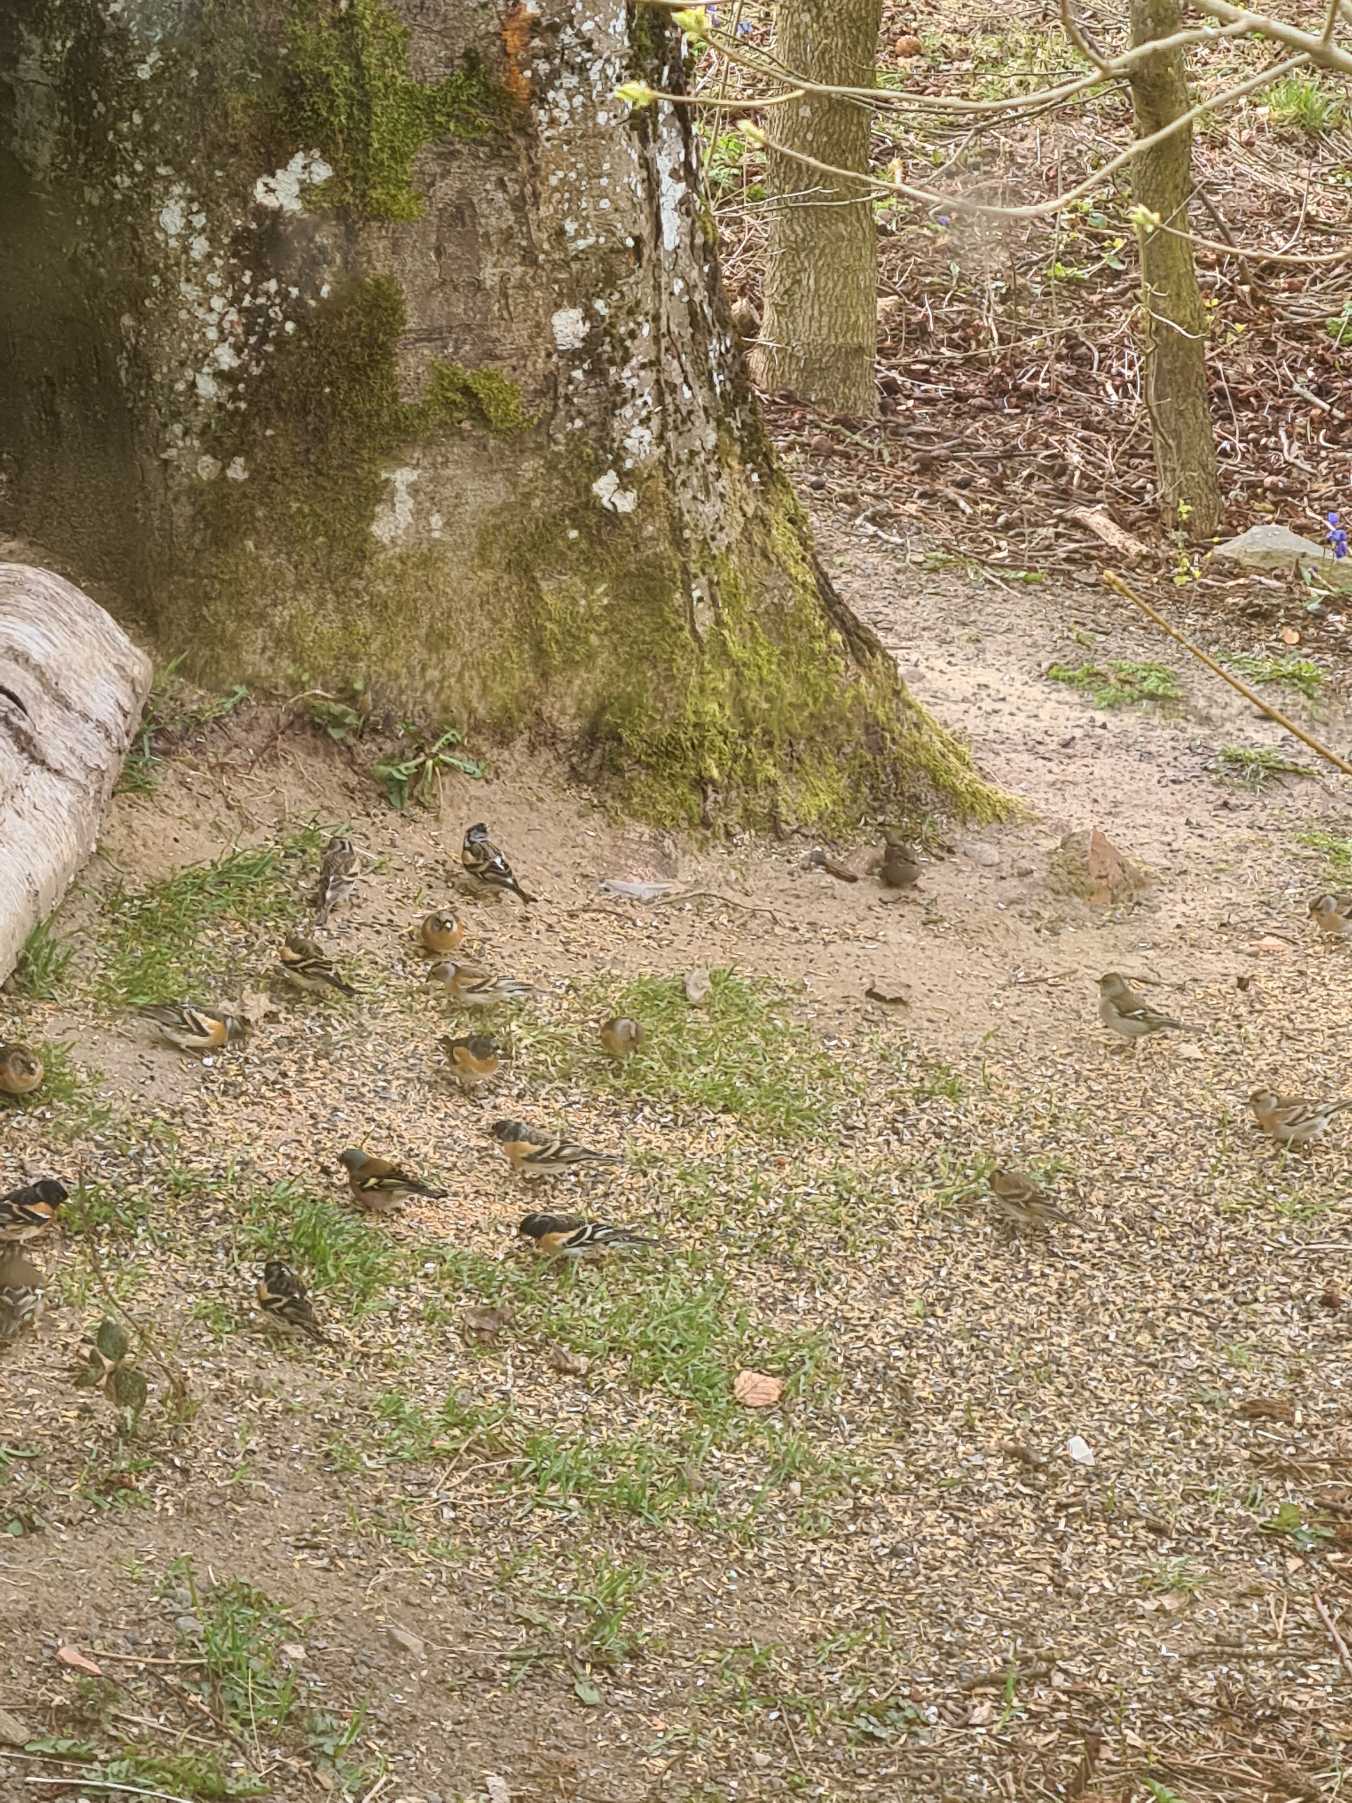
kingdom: Animalia
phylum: Chordata
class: Aves
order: Passeriformes
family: Fringillidae
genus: Fringilla
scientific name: Fringilla montifringilla
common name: Kvækerfinke
